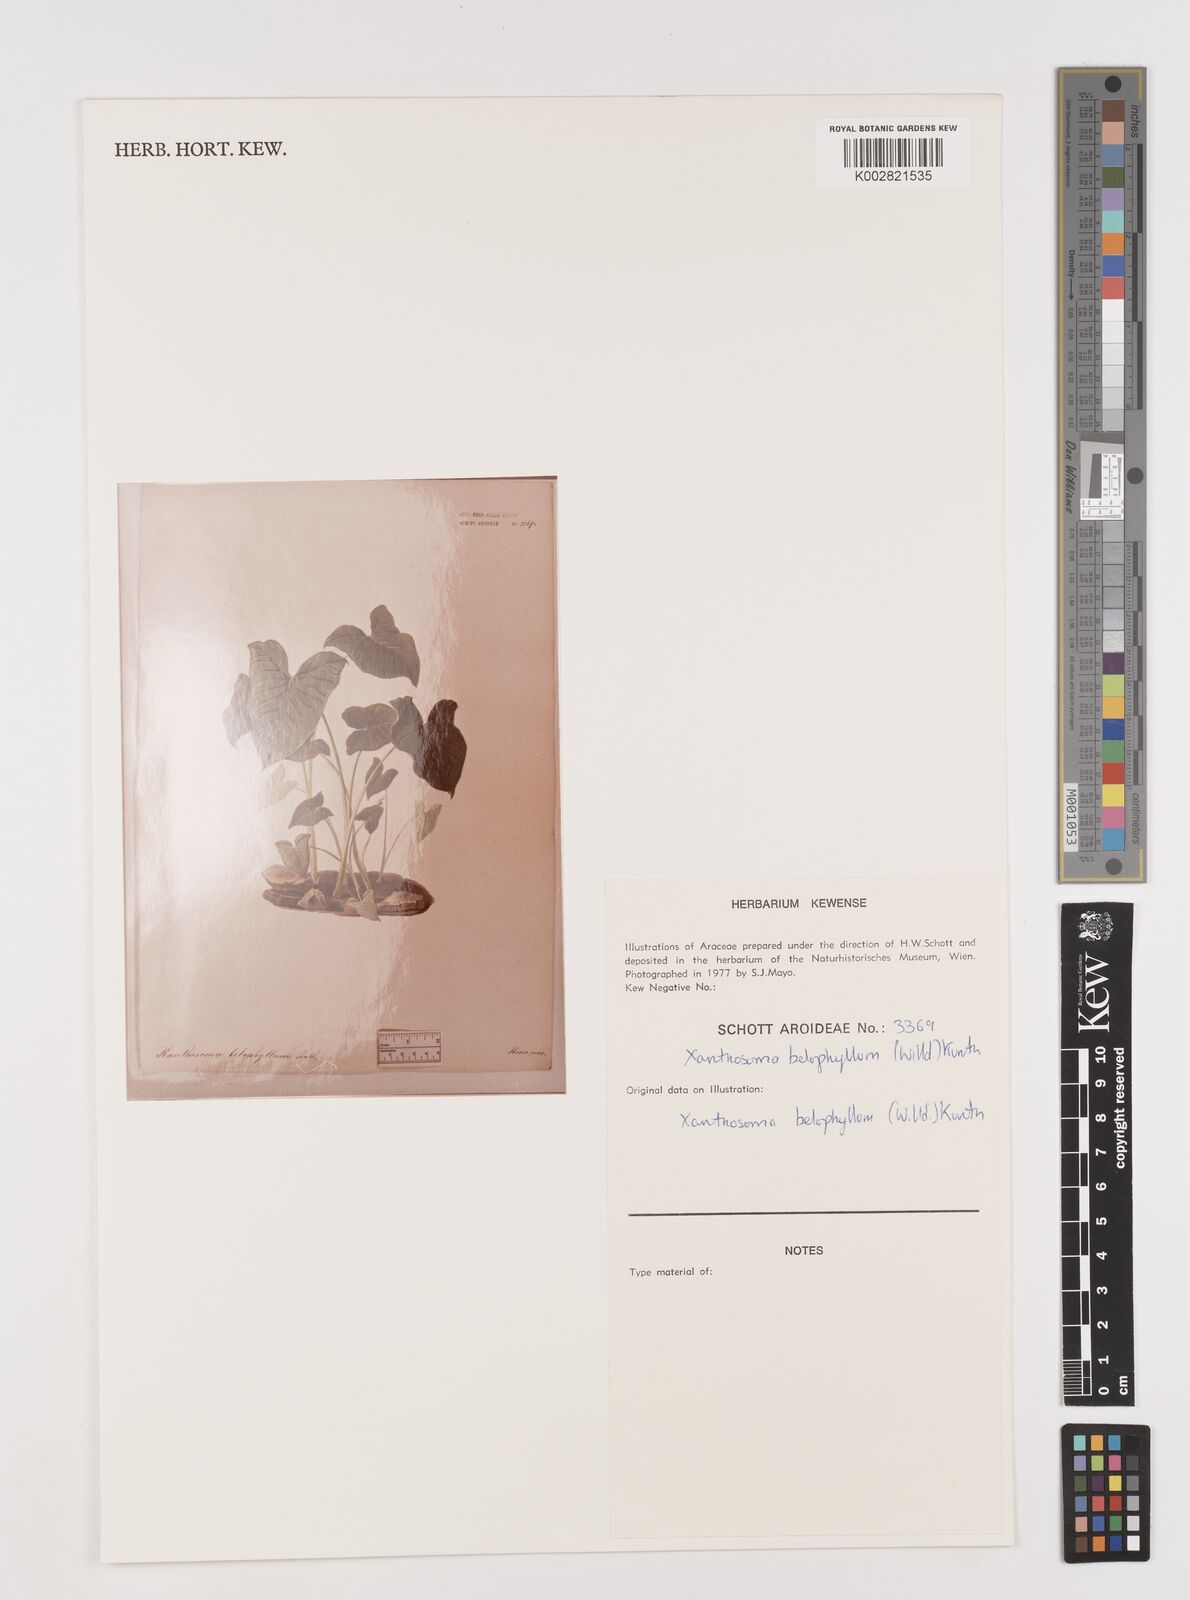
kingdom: Plantae
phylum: Tracheophyta
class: Liliopsida
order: Alismatales
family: Araceae
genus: Xanthosoma
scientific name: Xanthosoma belophyllum
